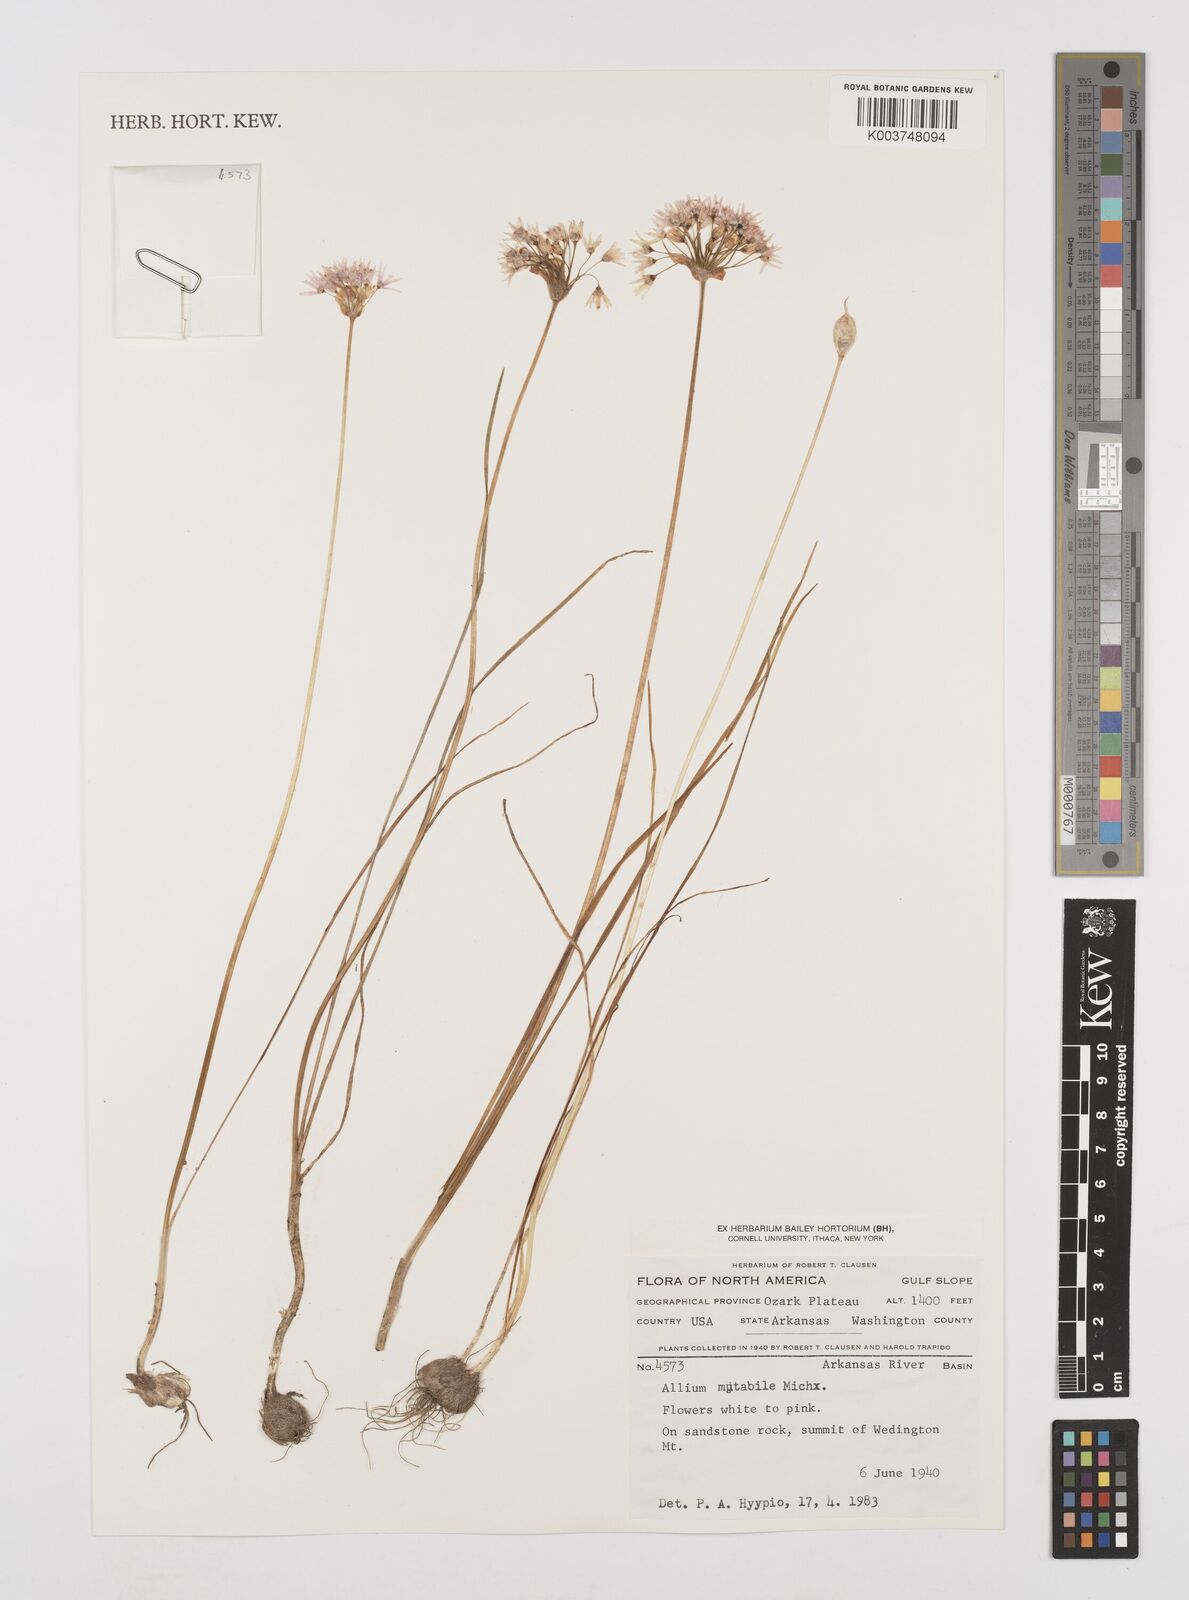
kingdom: Plantae
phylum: Tracheophyta
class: Liliopsida
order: Asparagales
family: Amaryllidaceae
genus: Allium
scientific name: Allium canadense
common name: Meadow garlic
